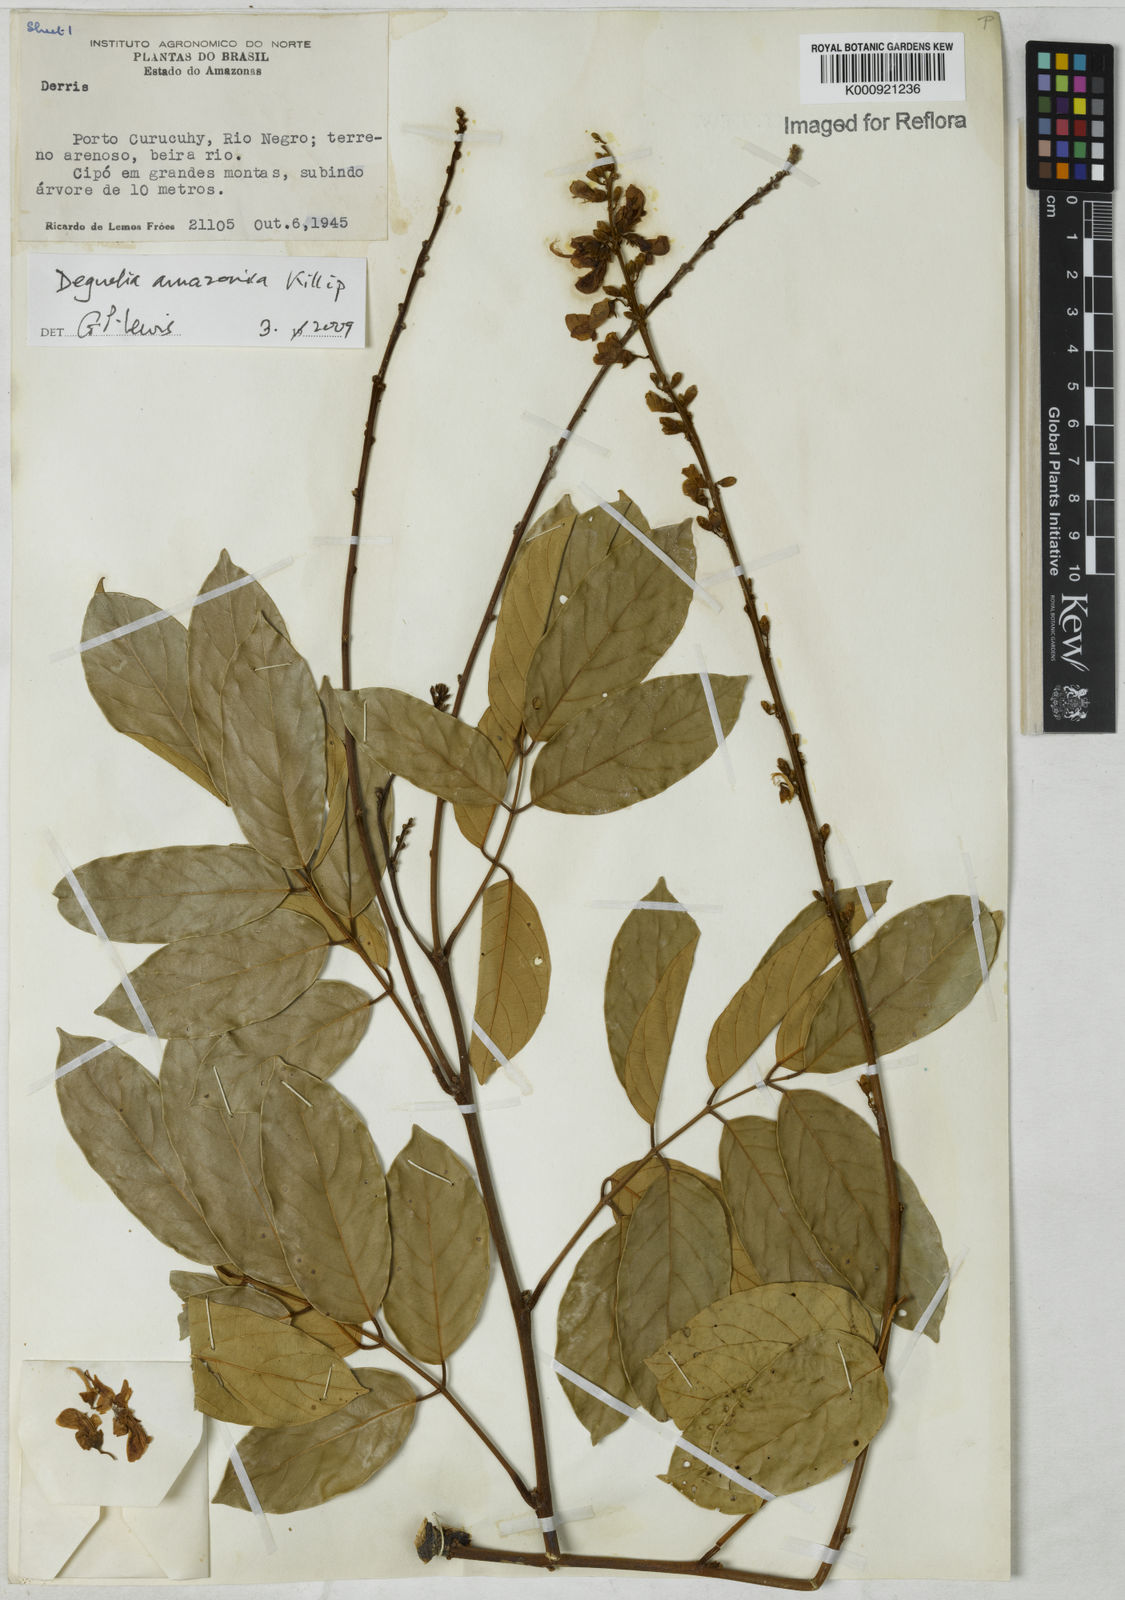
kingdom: Plantae
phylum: Tracheophyta
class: Magnoliopsida
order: Fabales
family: Fabaceae
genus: Deguelia
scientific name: Deguelia amazonica
